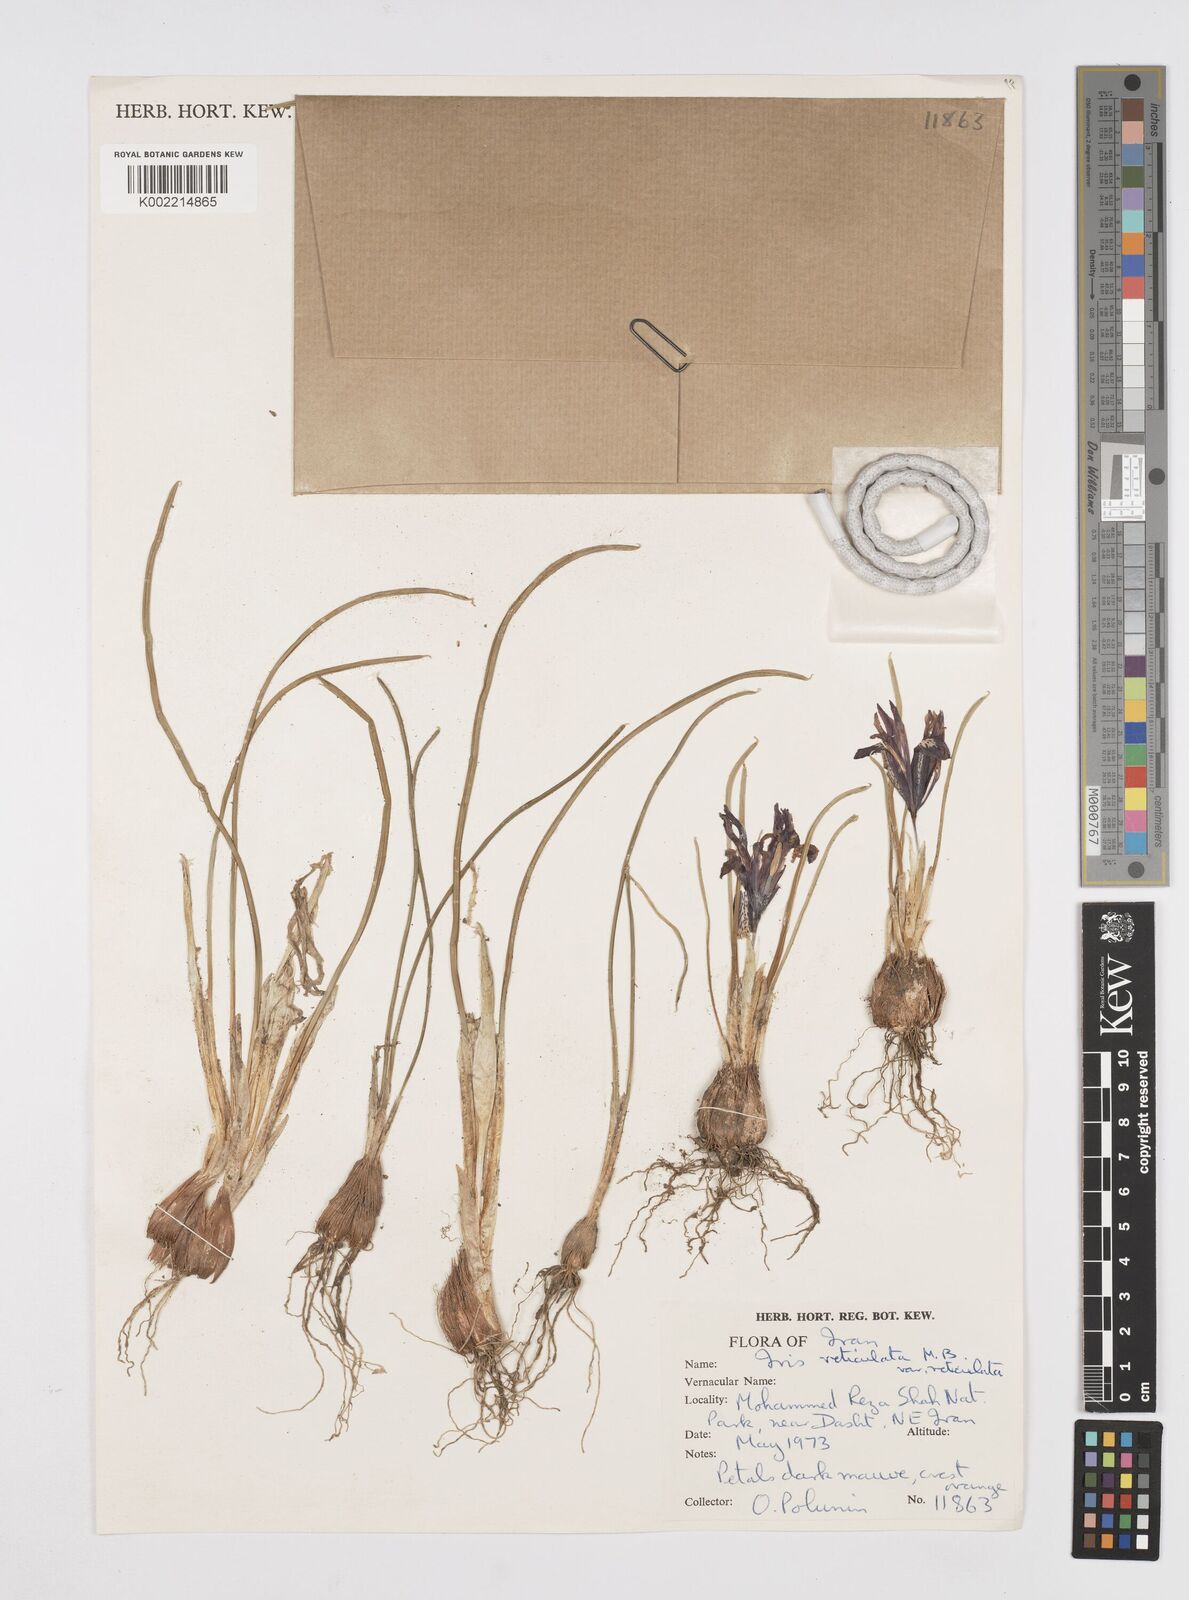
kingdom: Plantae
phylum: Tracheophyta
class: Liliopsida
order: Asparagales
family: Iridaceae
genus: Iris
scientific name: Iris reticulata
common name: Netted iris
